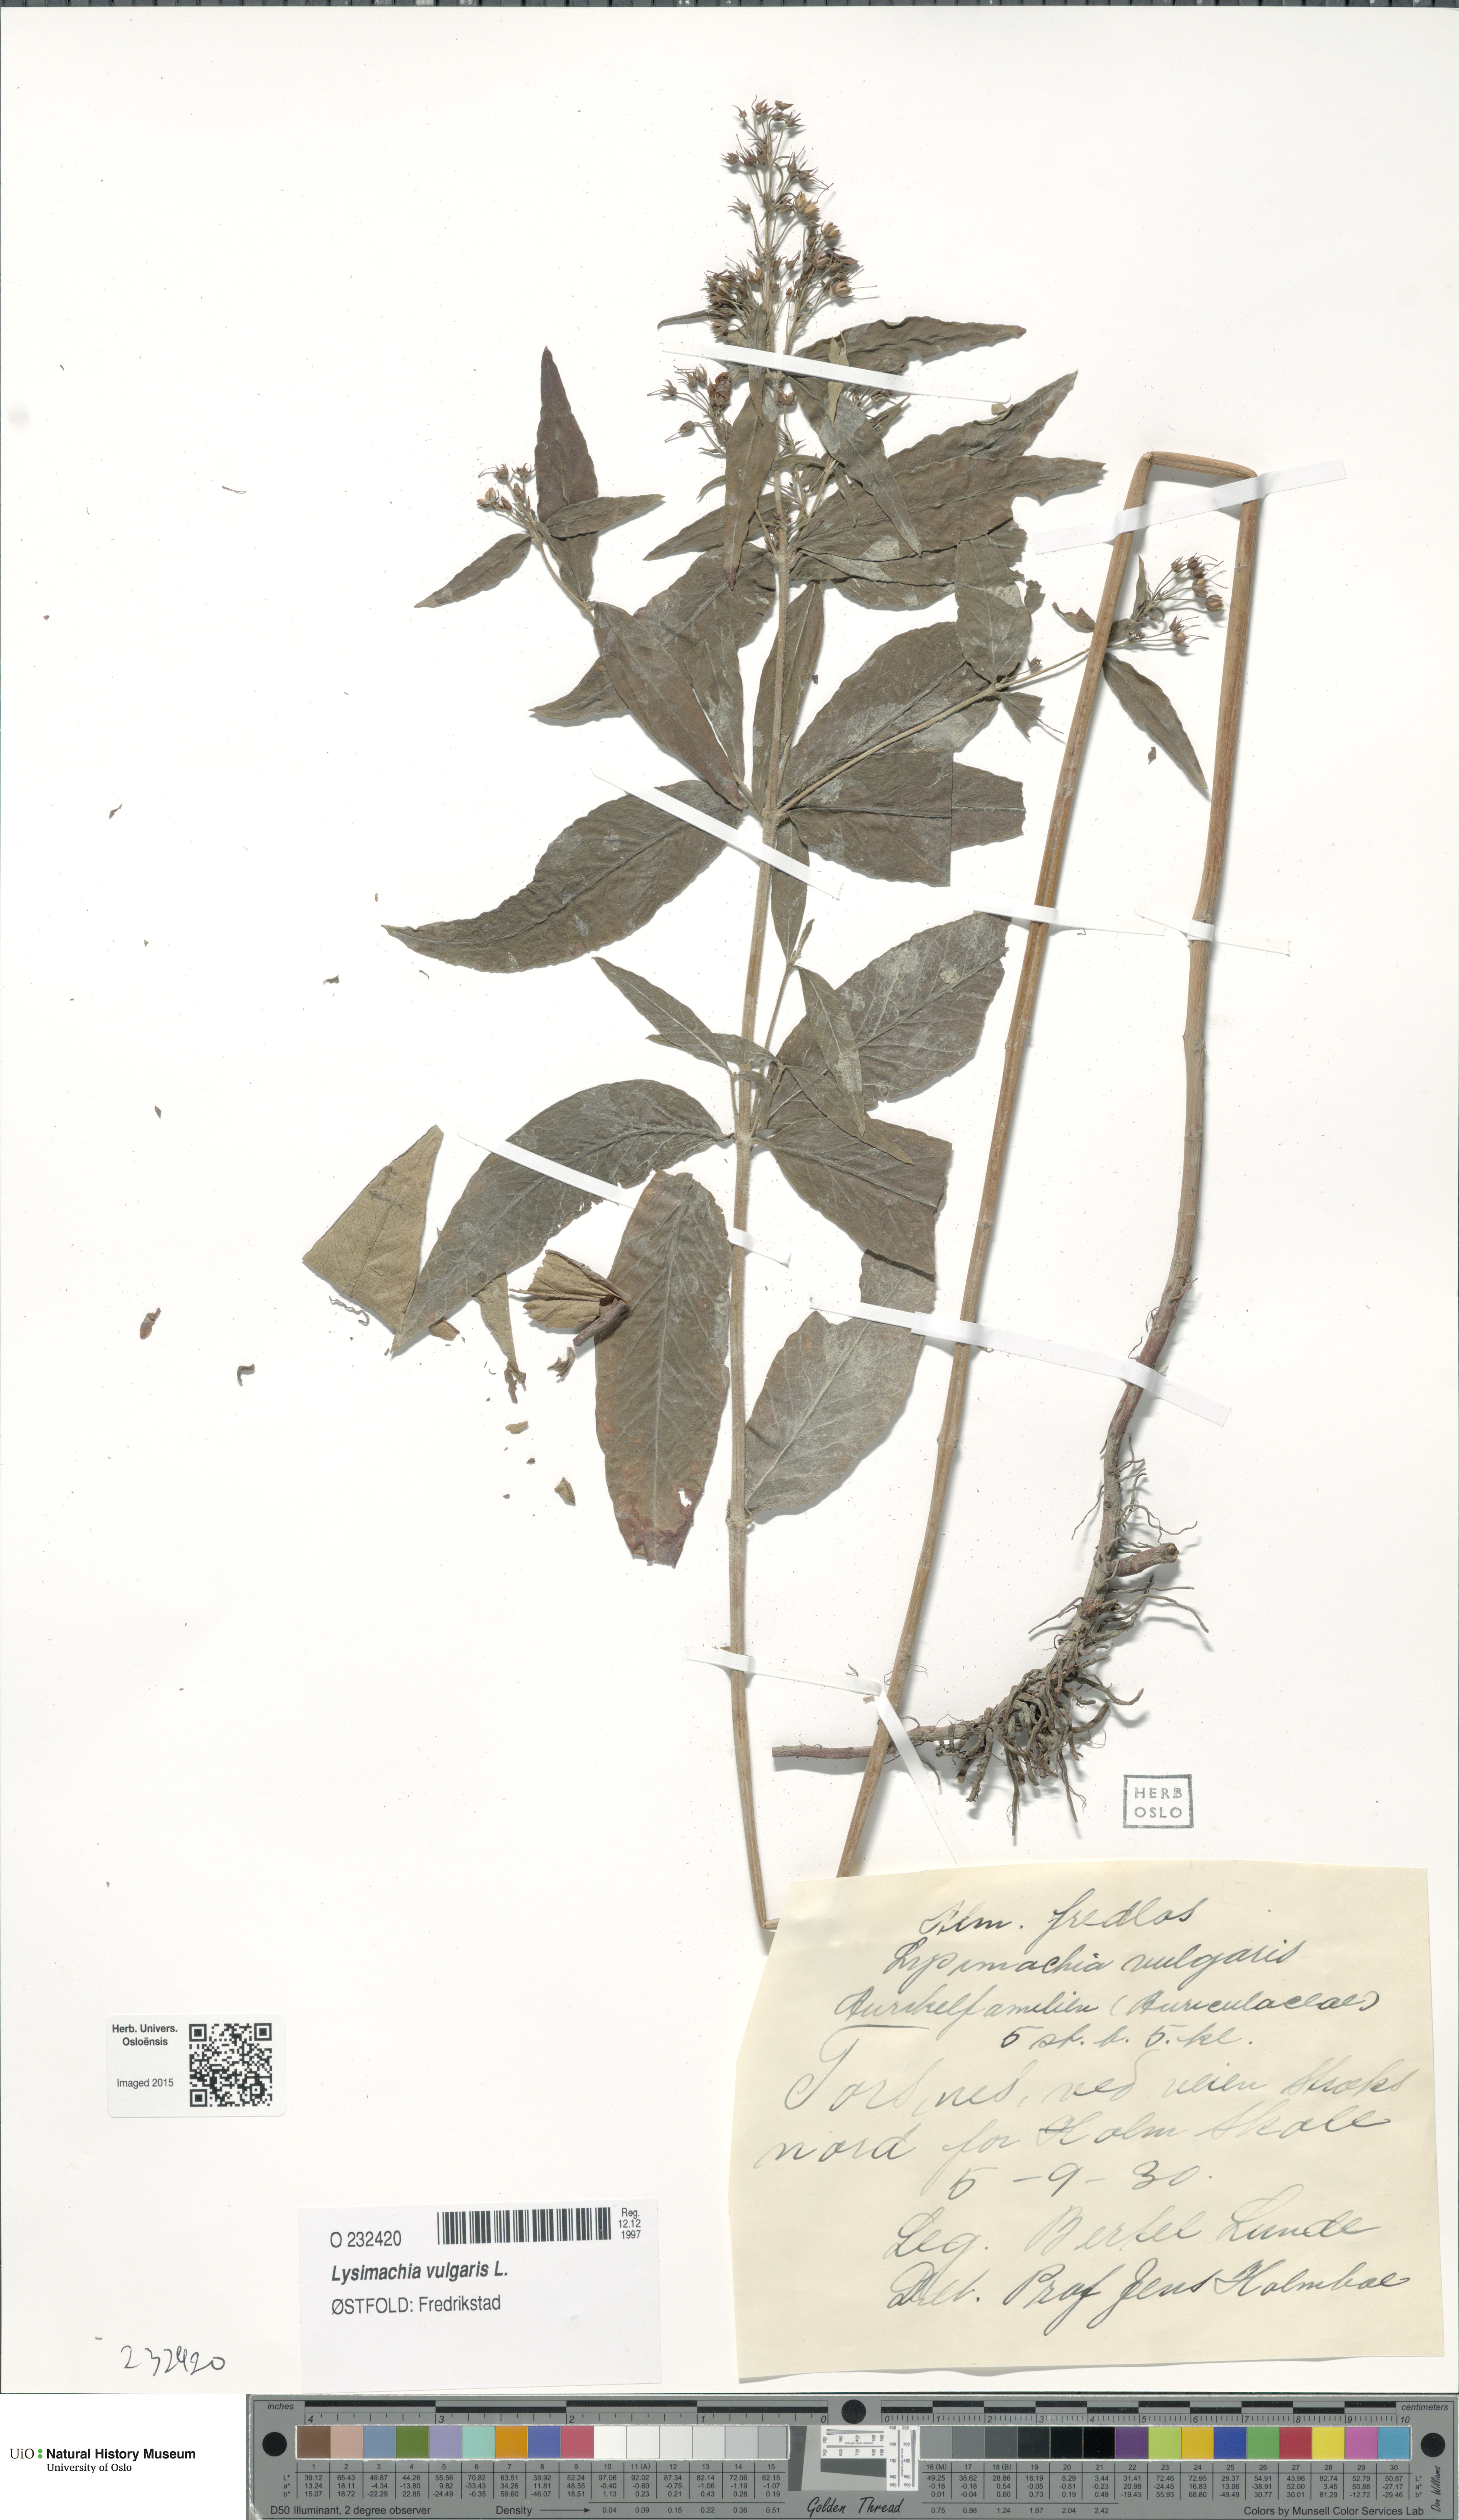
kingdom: Plantae
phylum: Tracheophyta
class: Magnoliopsida
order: Ericales
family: Primulaceae
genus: Lysimachia
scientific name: Lysimachia vulgaris
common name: Yellow loosestrife
